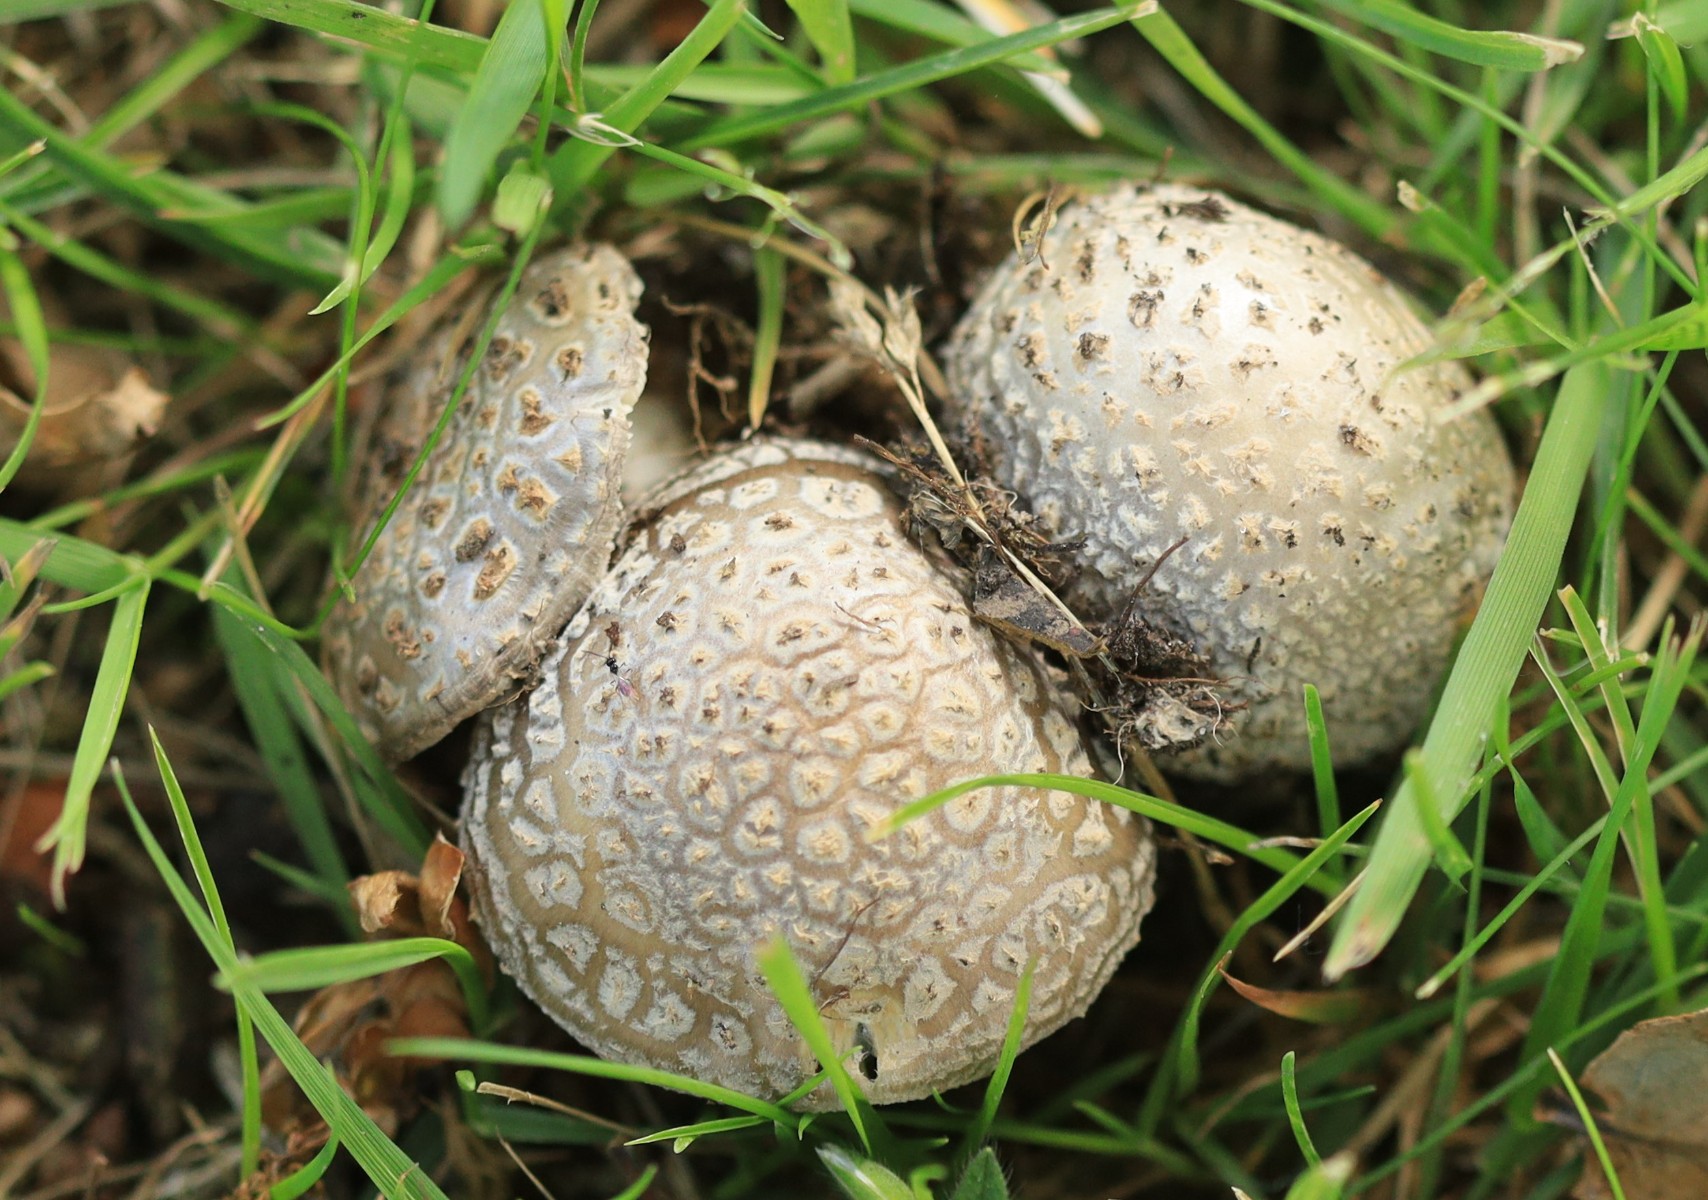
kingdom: Fungi
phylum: Basidiomycota
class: Agaricomycetes
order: Agaricales
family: Amanitaceae
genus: Amanita
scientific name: Amanita
